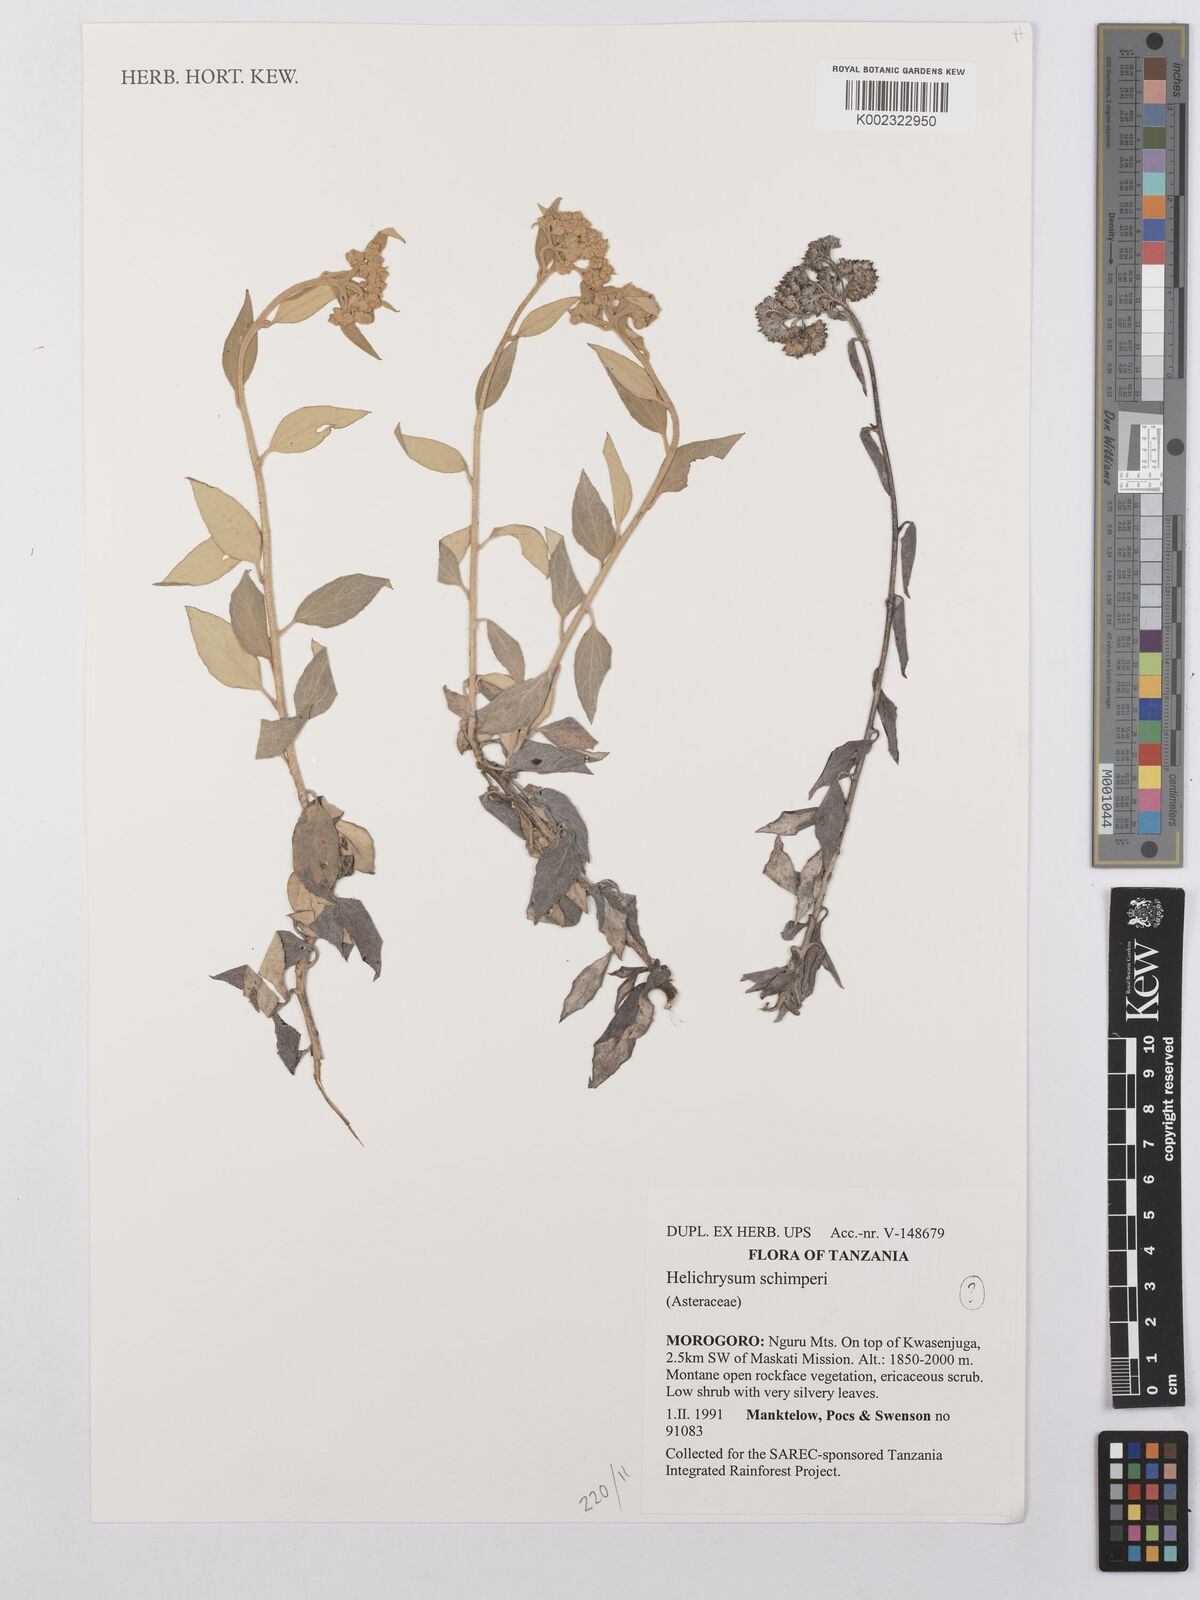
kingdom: Plantae
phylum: Tracheophyta
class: Magnoliopsida
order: Asterales
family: Asteraceae
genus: Helichrysum
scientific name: Helichrysum schimperi
